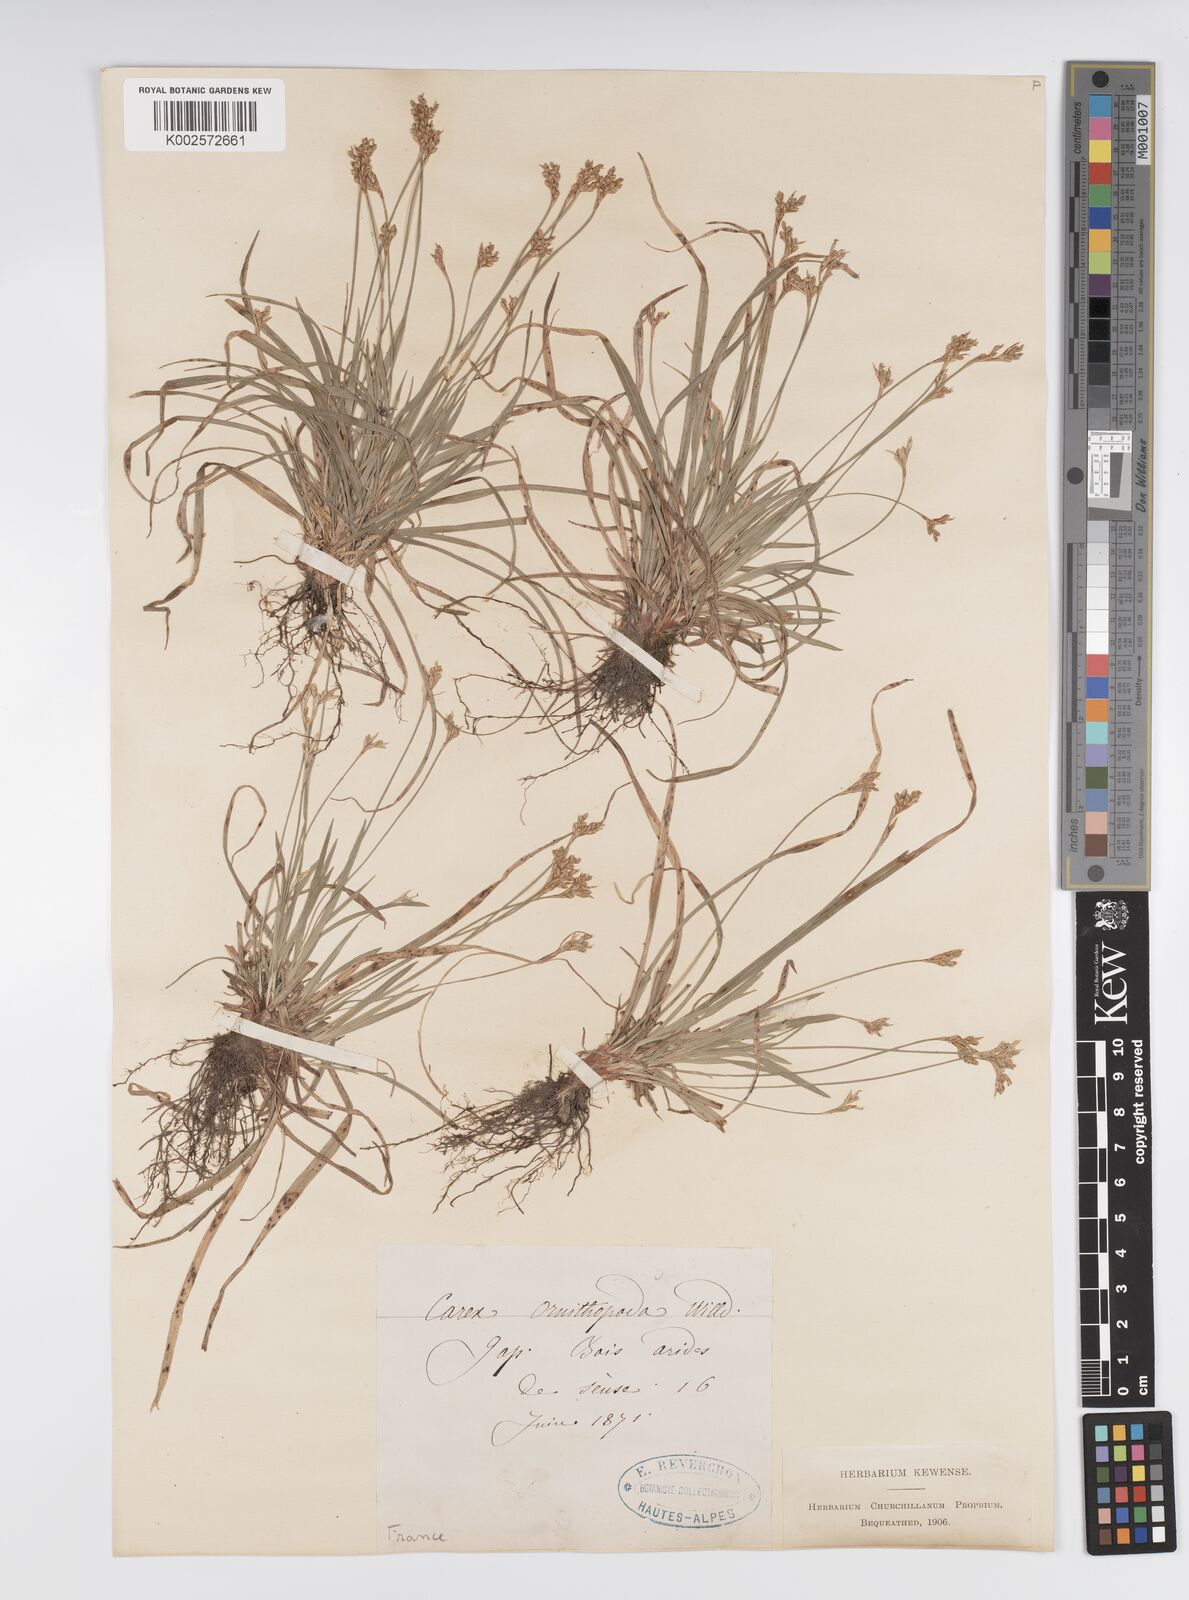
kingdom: Plantae
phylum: Tracheophyta
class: Liliopsida
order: Poales
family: Cyperaceae
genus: Carex
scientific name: Carex ornithopoda
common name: Bird's-foot sedge
